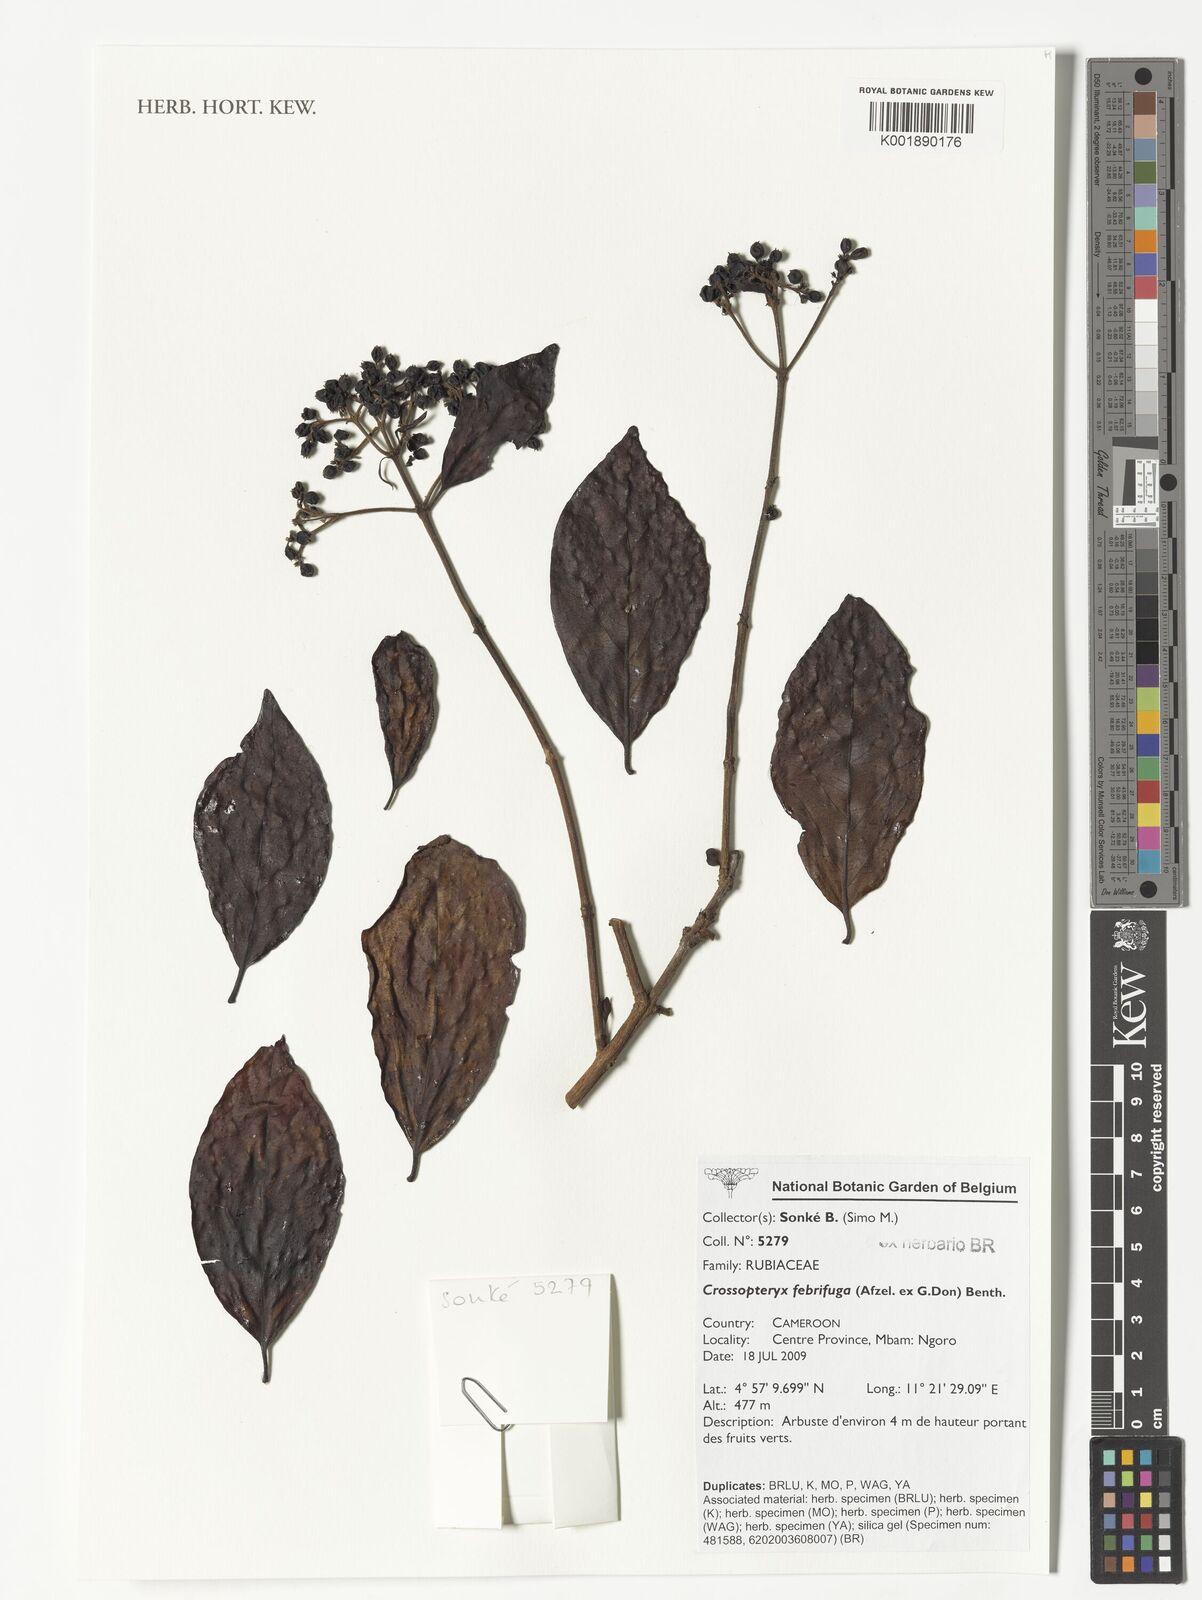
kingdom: Plantae
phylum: Tracheophyta
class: Magnoliopsida
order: Gentianales
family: Rubiaceae
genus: Crossopteryx
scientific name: Crossopteryx febrifuga
